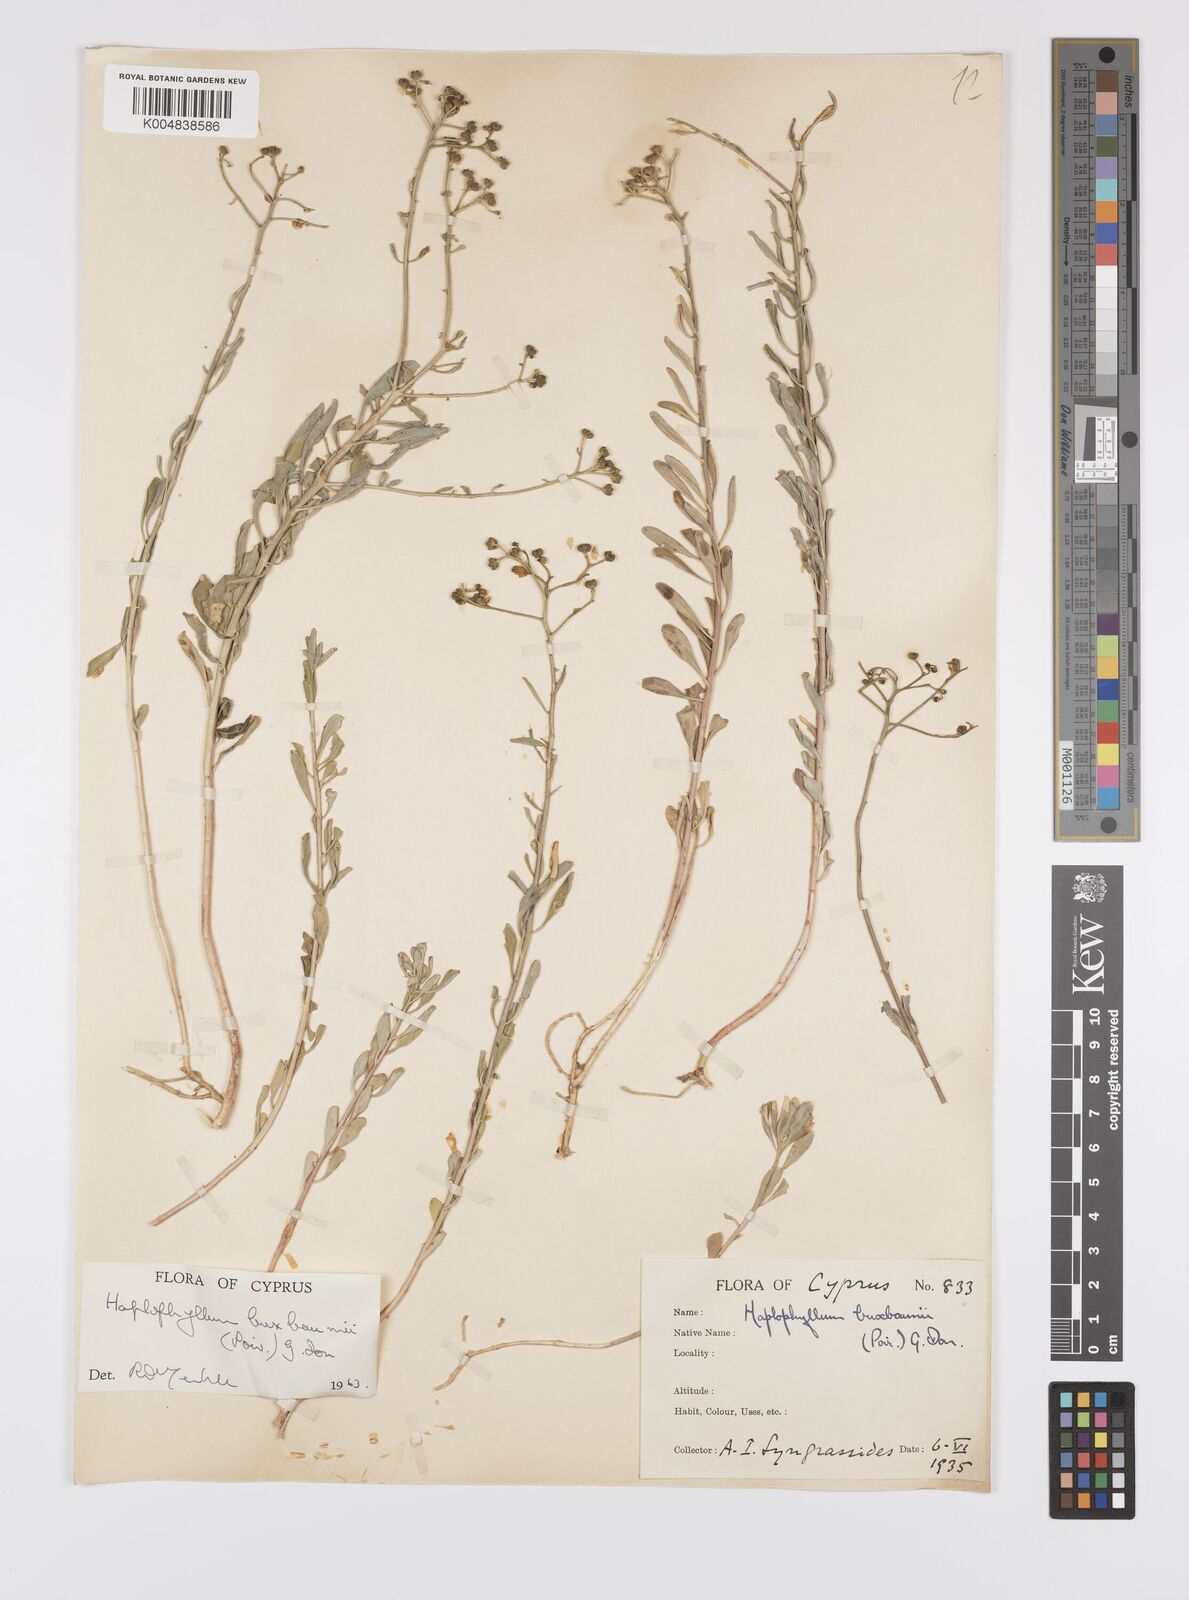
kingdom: Plantae
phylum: Tracheophyta
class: Magnoliopsida
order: Sapindales
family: Rutaceae
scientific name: Rutaceae
